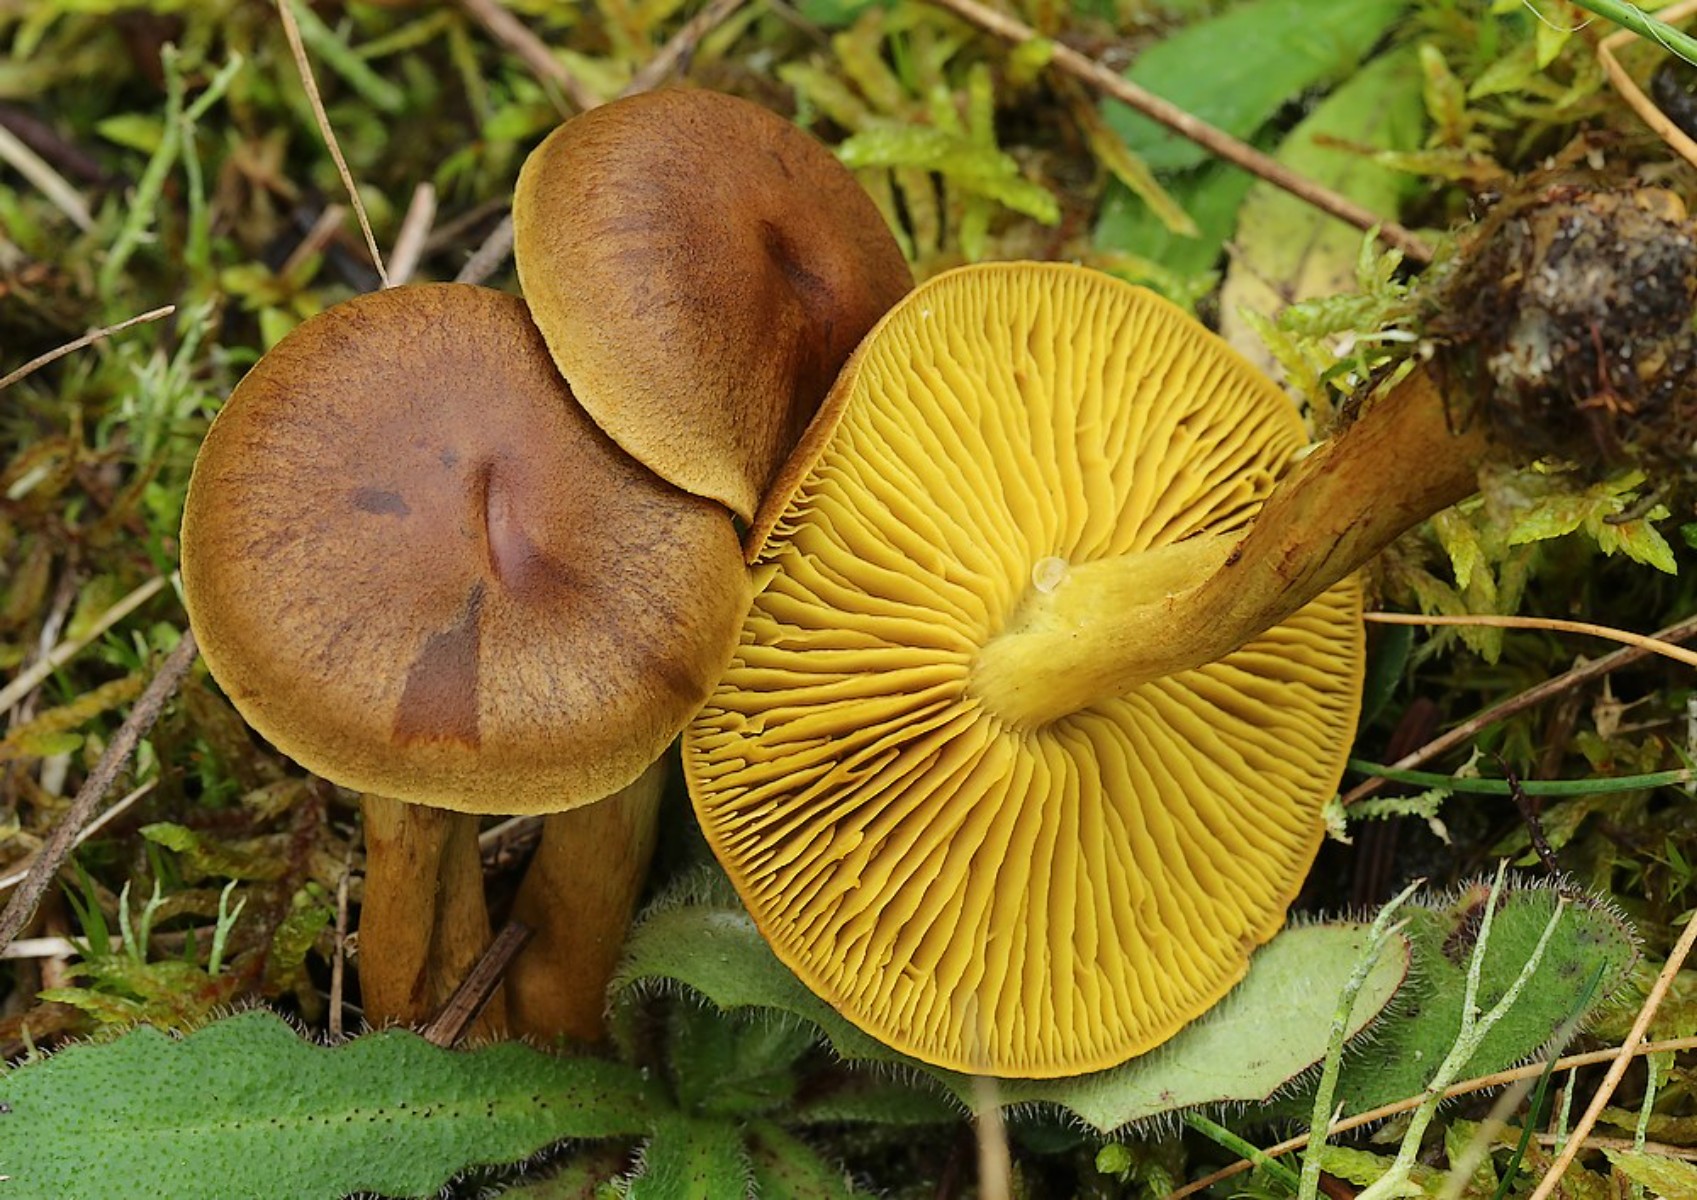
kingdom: Fungi
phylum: Basidiomycota
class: Agaricomycetes
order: Agaricales
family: Cortinariaceae
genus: Cortinarius
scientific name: Cortinarius
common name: gulbladet slørhat
